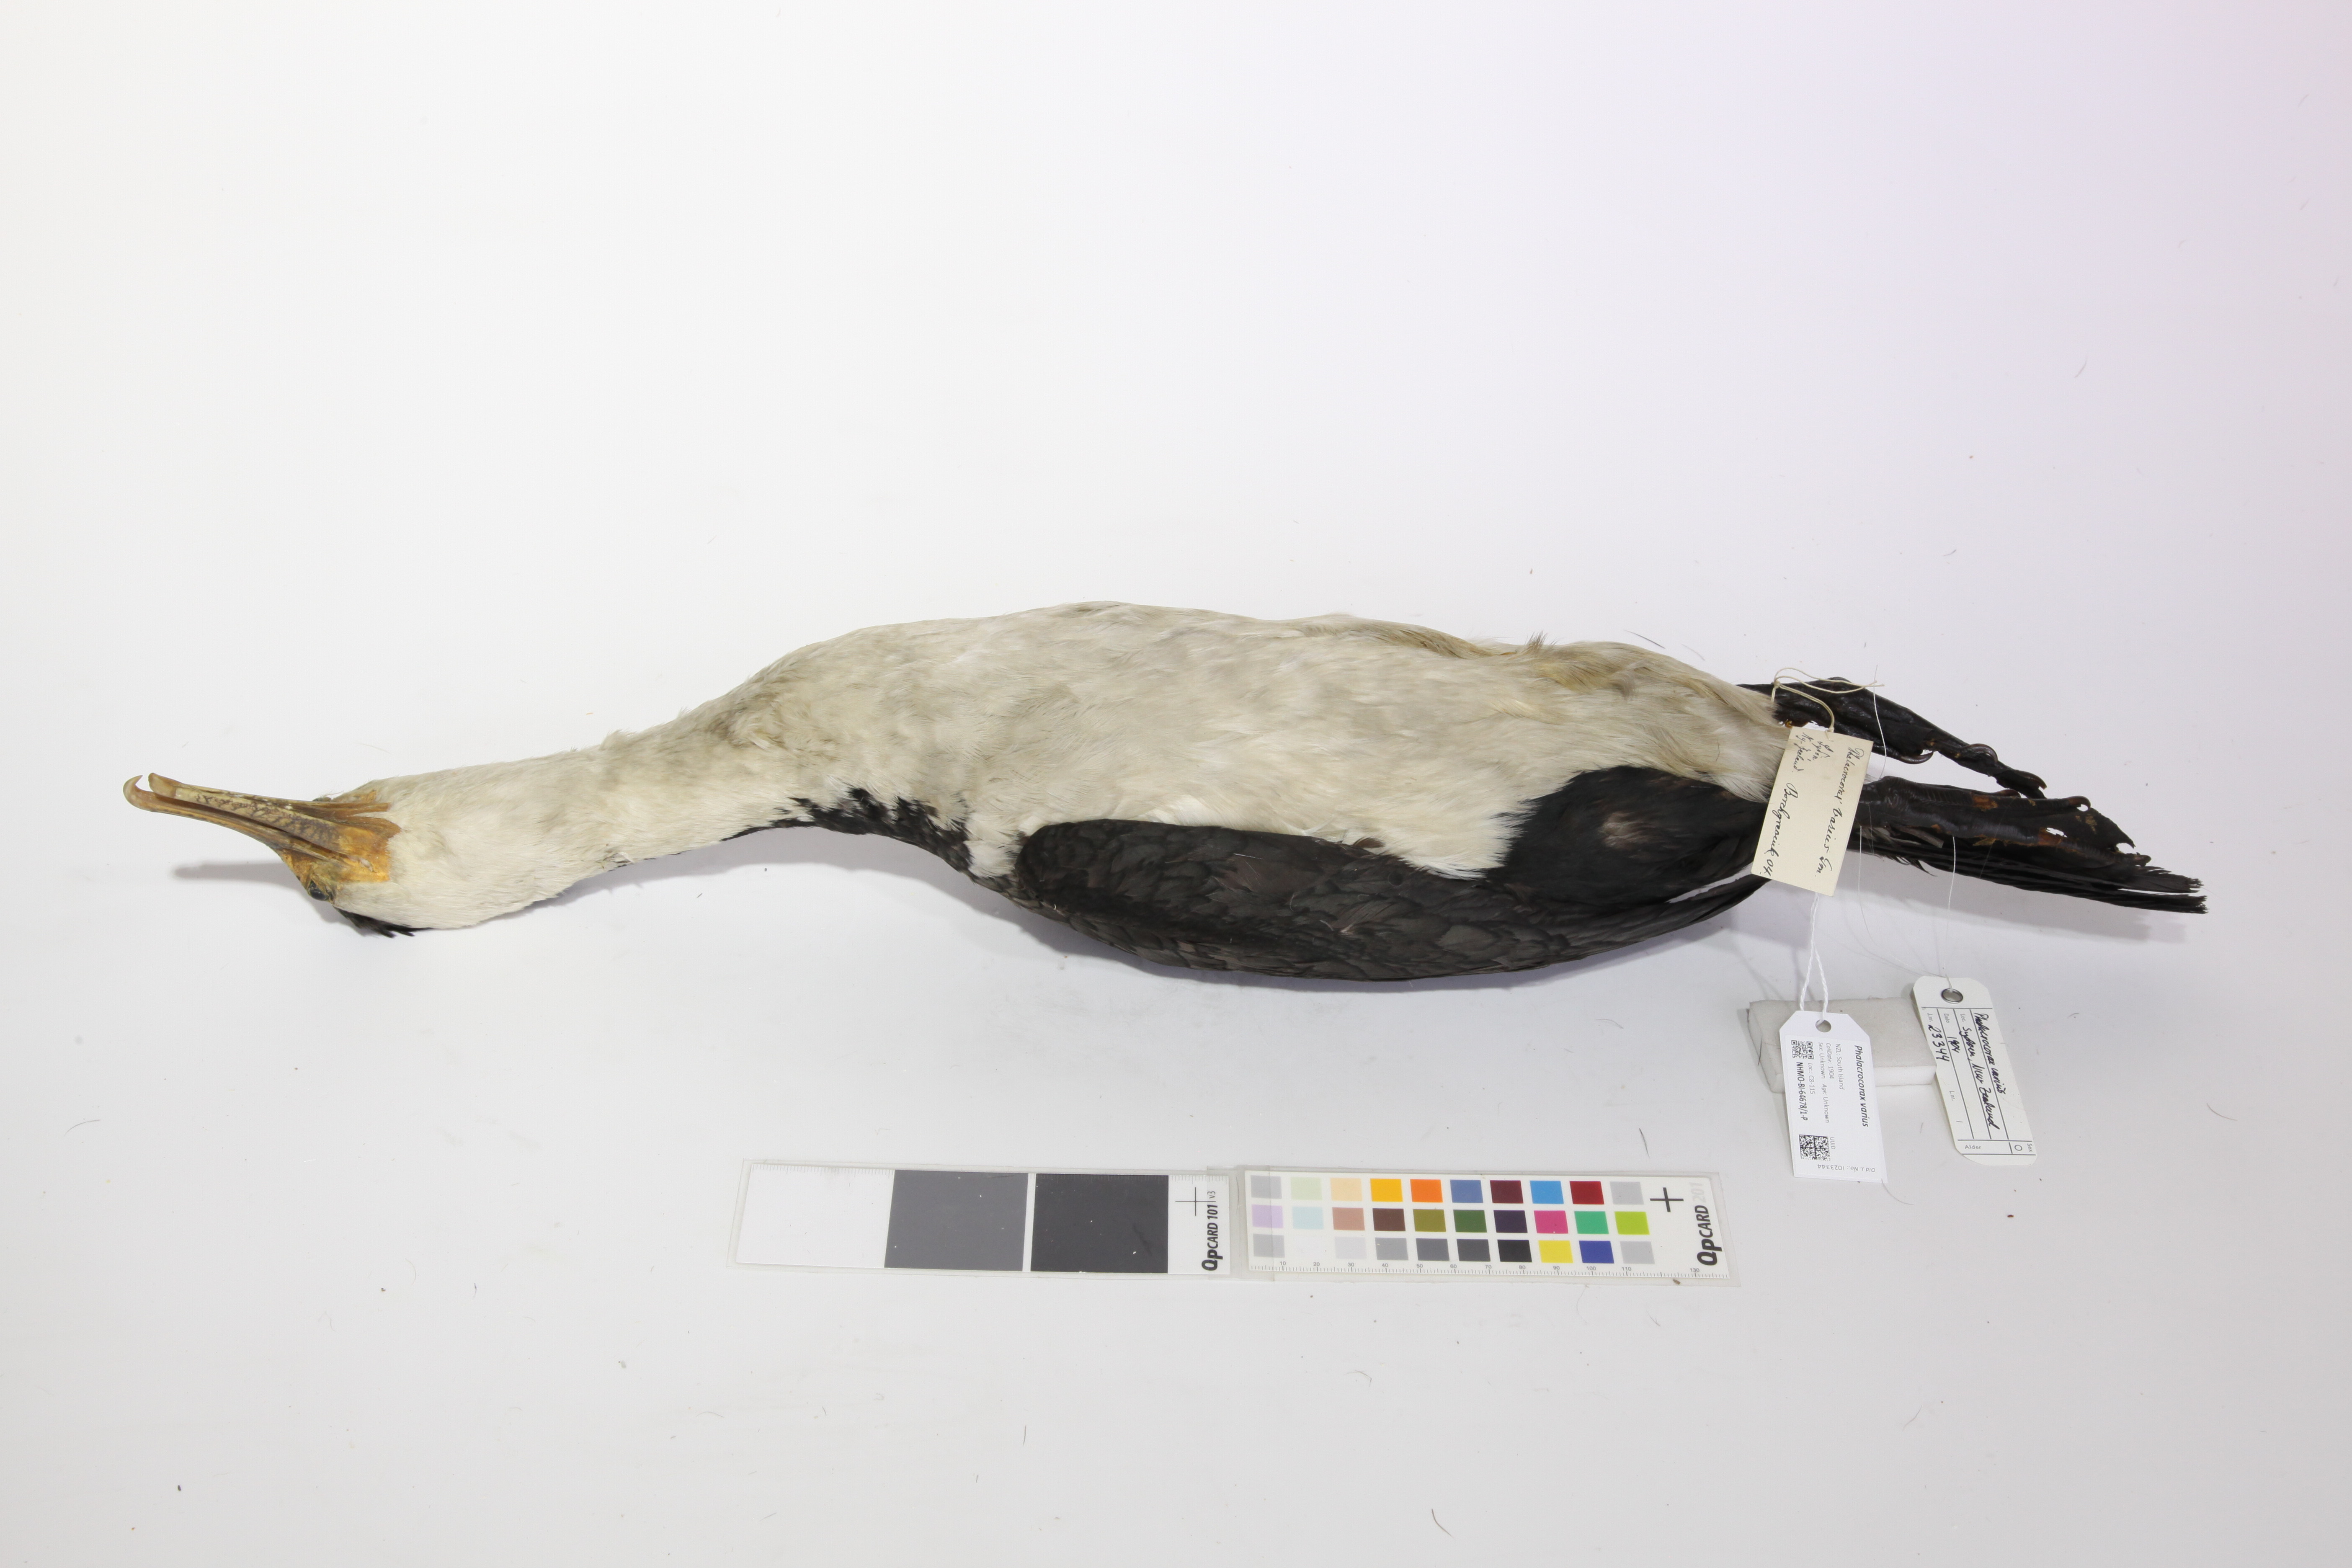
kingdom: Animalia
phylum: Chordata
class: Aves
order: Suliformes
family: Phalacrocoracidae
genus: Phalacrocorax
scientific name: Phalacrocorax varius
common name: Pied cormorant
